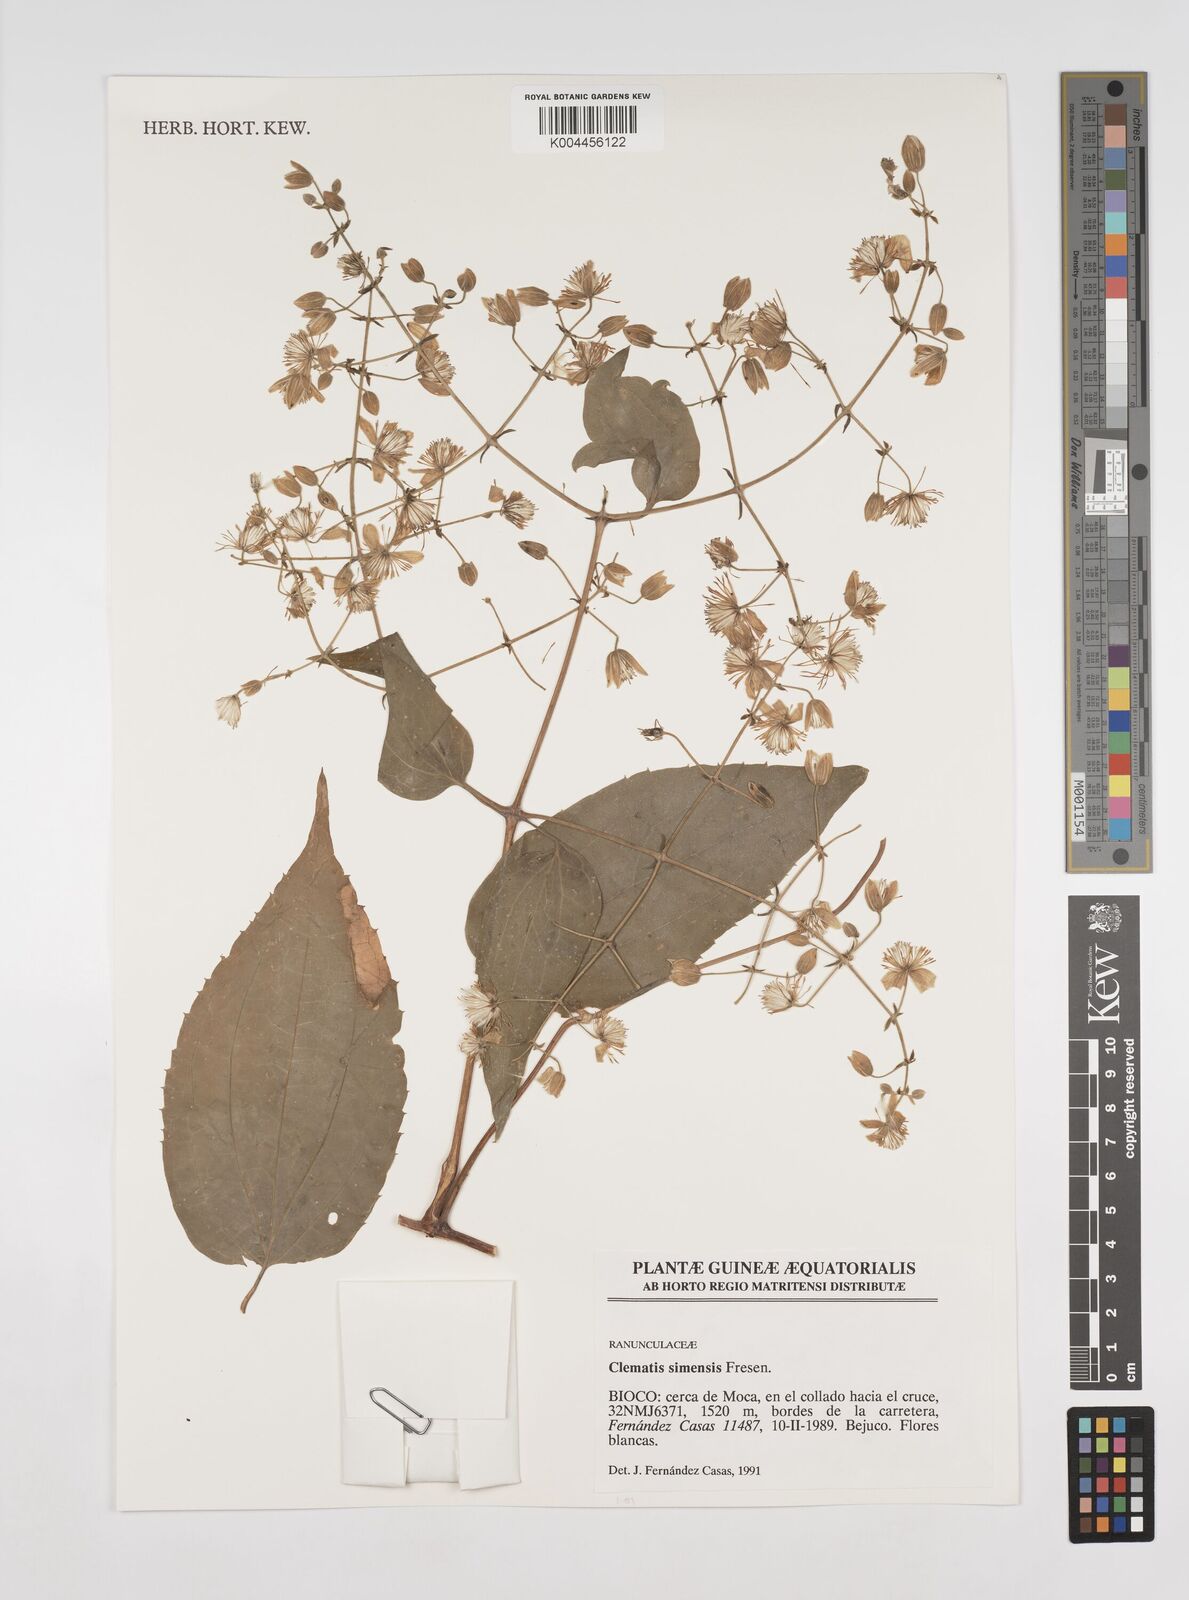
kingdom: Plantae
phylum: Tracheophyta
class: Magnoliopsida
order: Ranunculales
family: Ranunculaceae
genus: Clematis
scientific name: Clematis simensis
